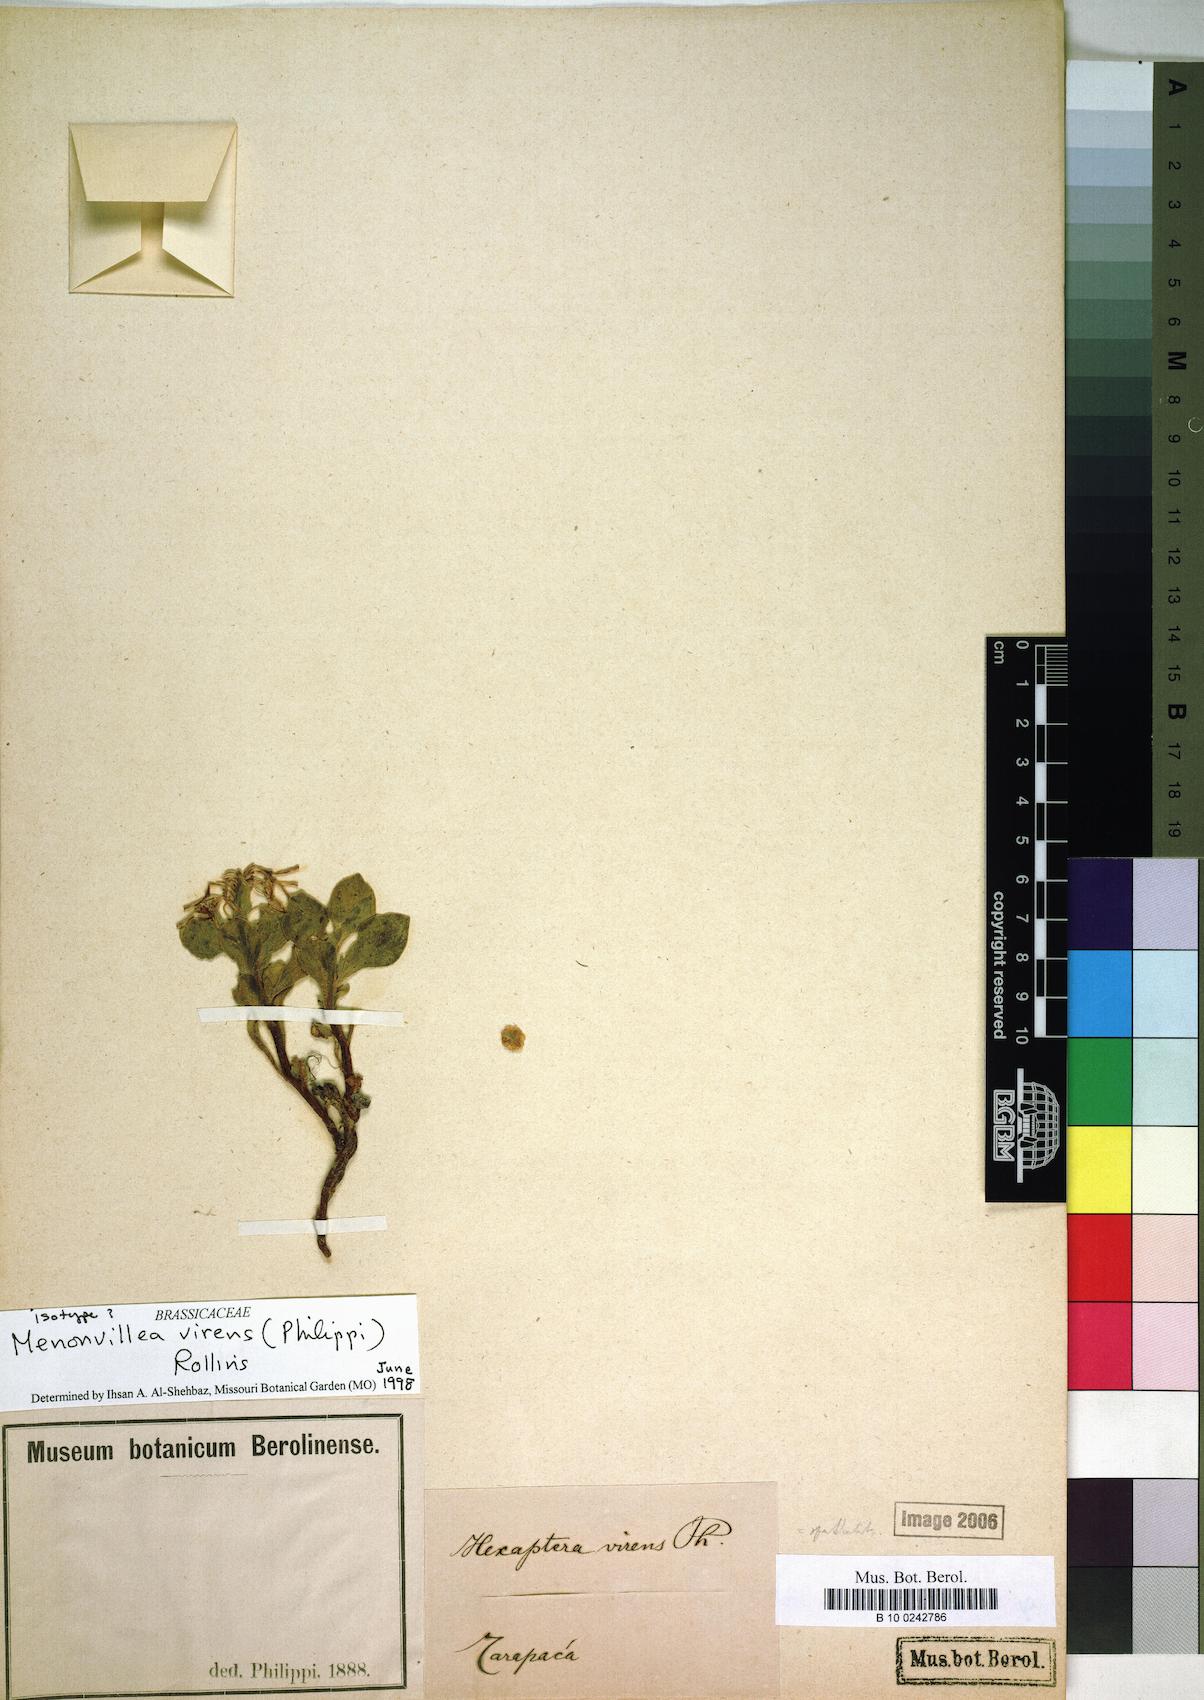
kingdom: Plantae
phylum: Tracheophyta
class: Magnoliopsida
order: Brassicales
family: Brassicaceae
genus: Menonvillea
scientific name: Menonvillea virens
